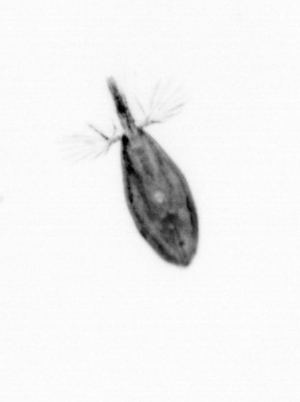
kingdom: Animalia
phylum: Arthropoda
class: Maxillopoda
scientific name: Maxillopoda
